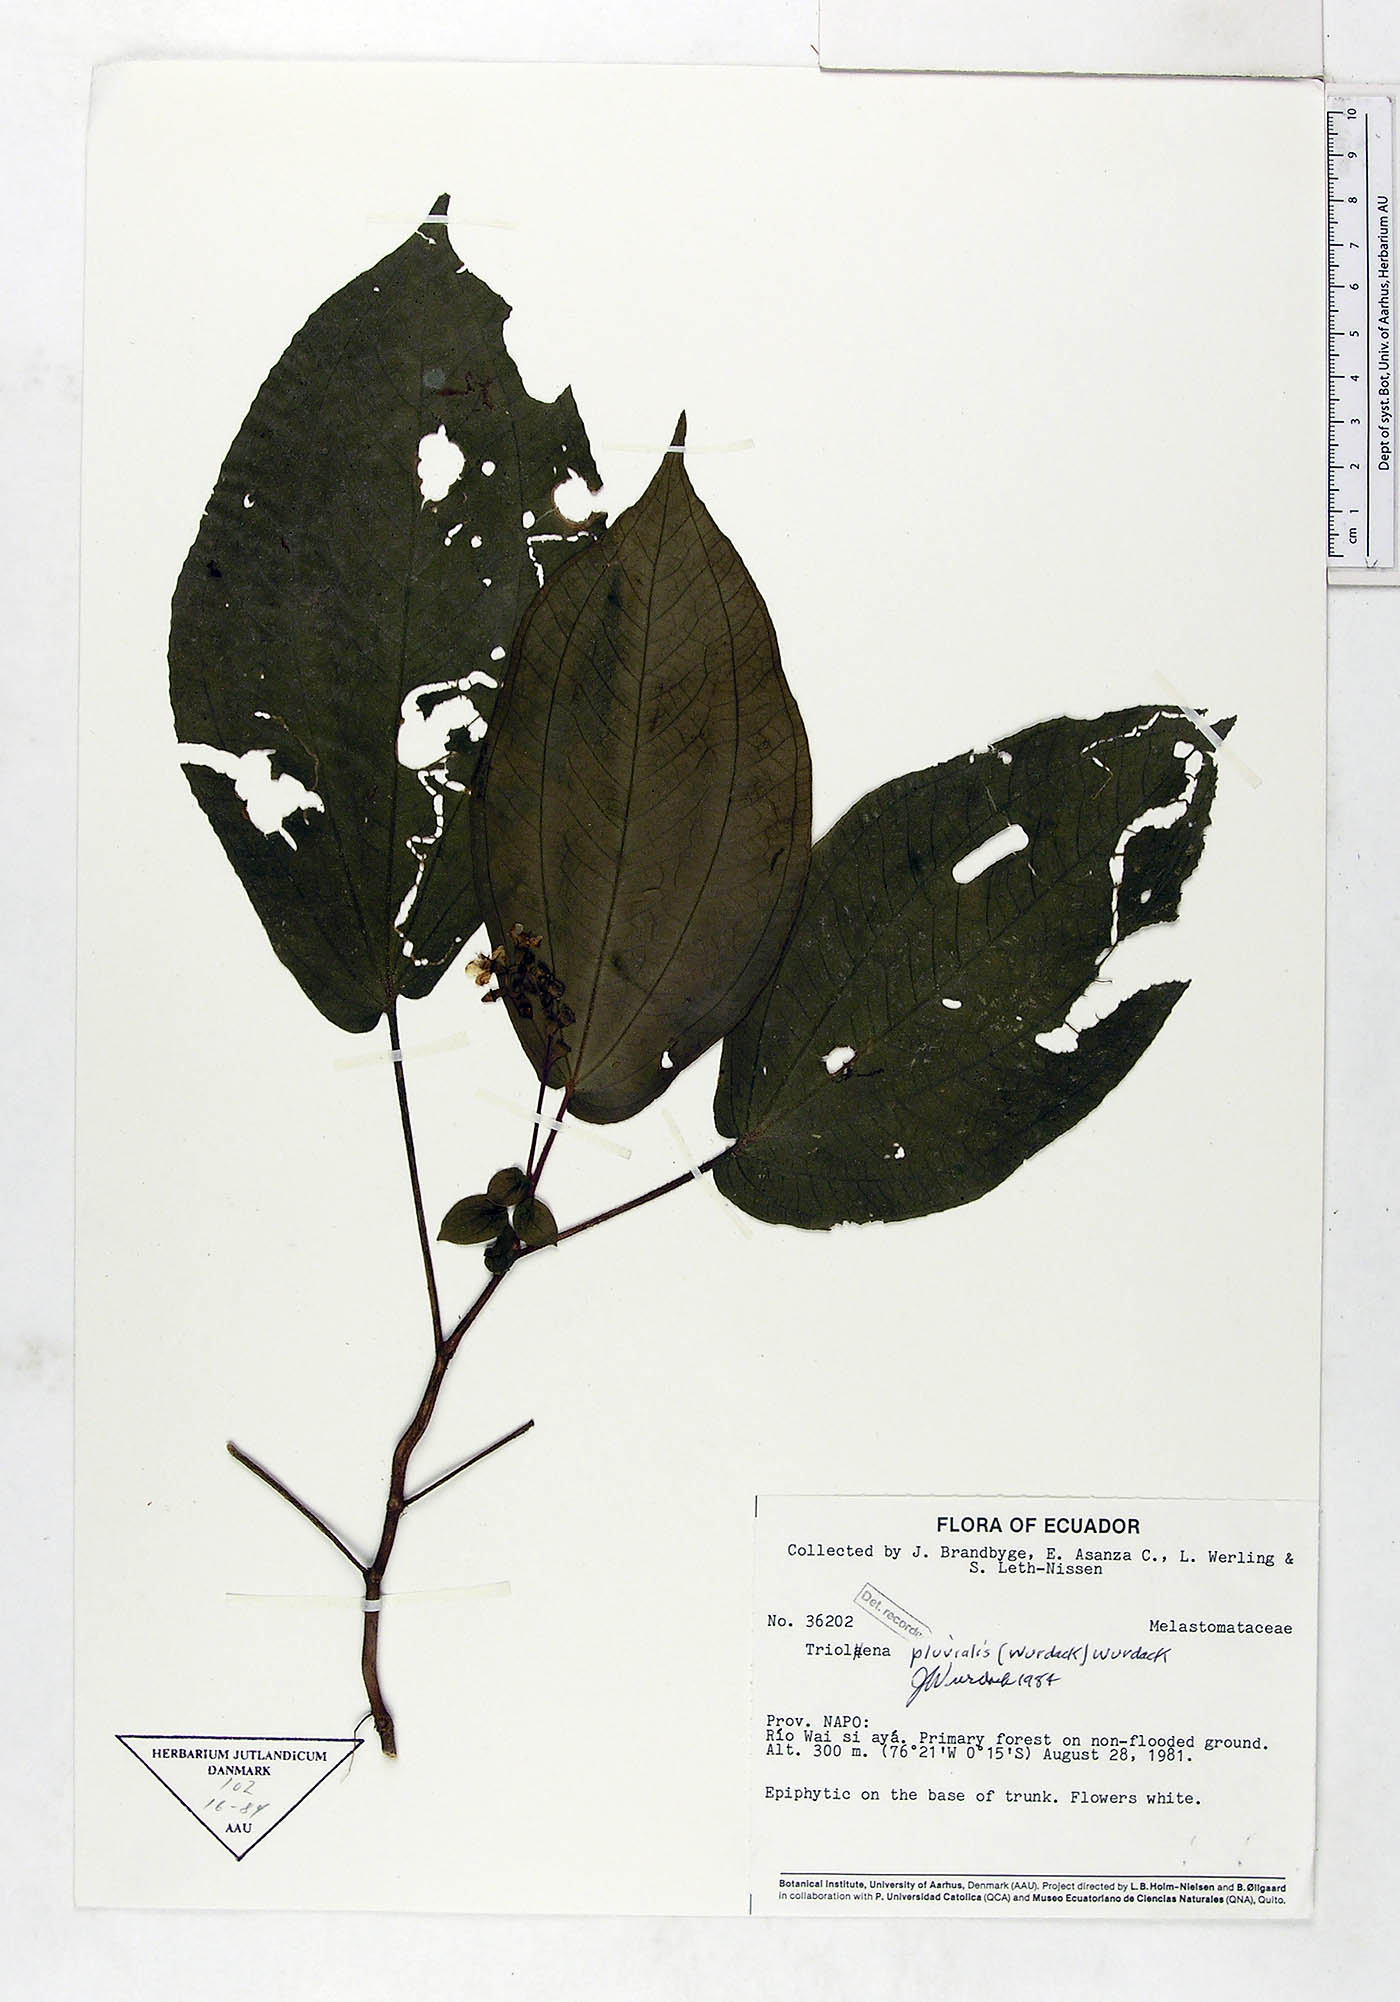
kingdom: Plantae
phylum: Tracheophyta
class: Magnoliopsida
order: Myrtales
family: Melastomataceae
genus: Triolena
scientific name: Triolena pluvialis
